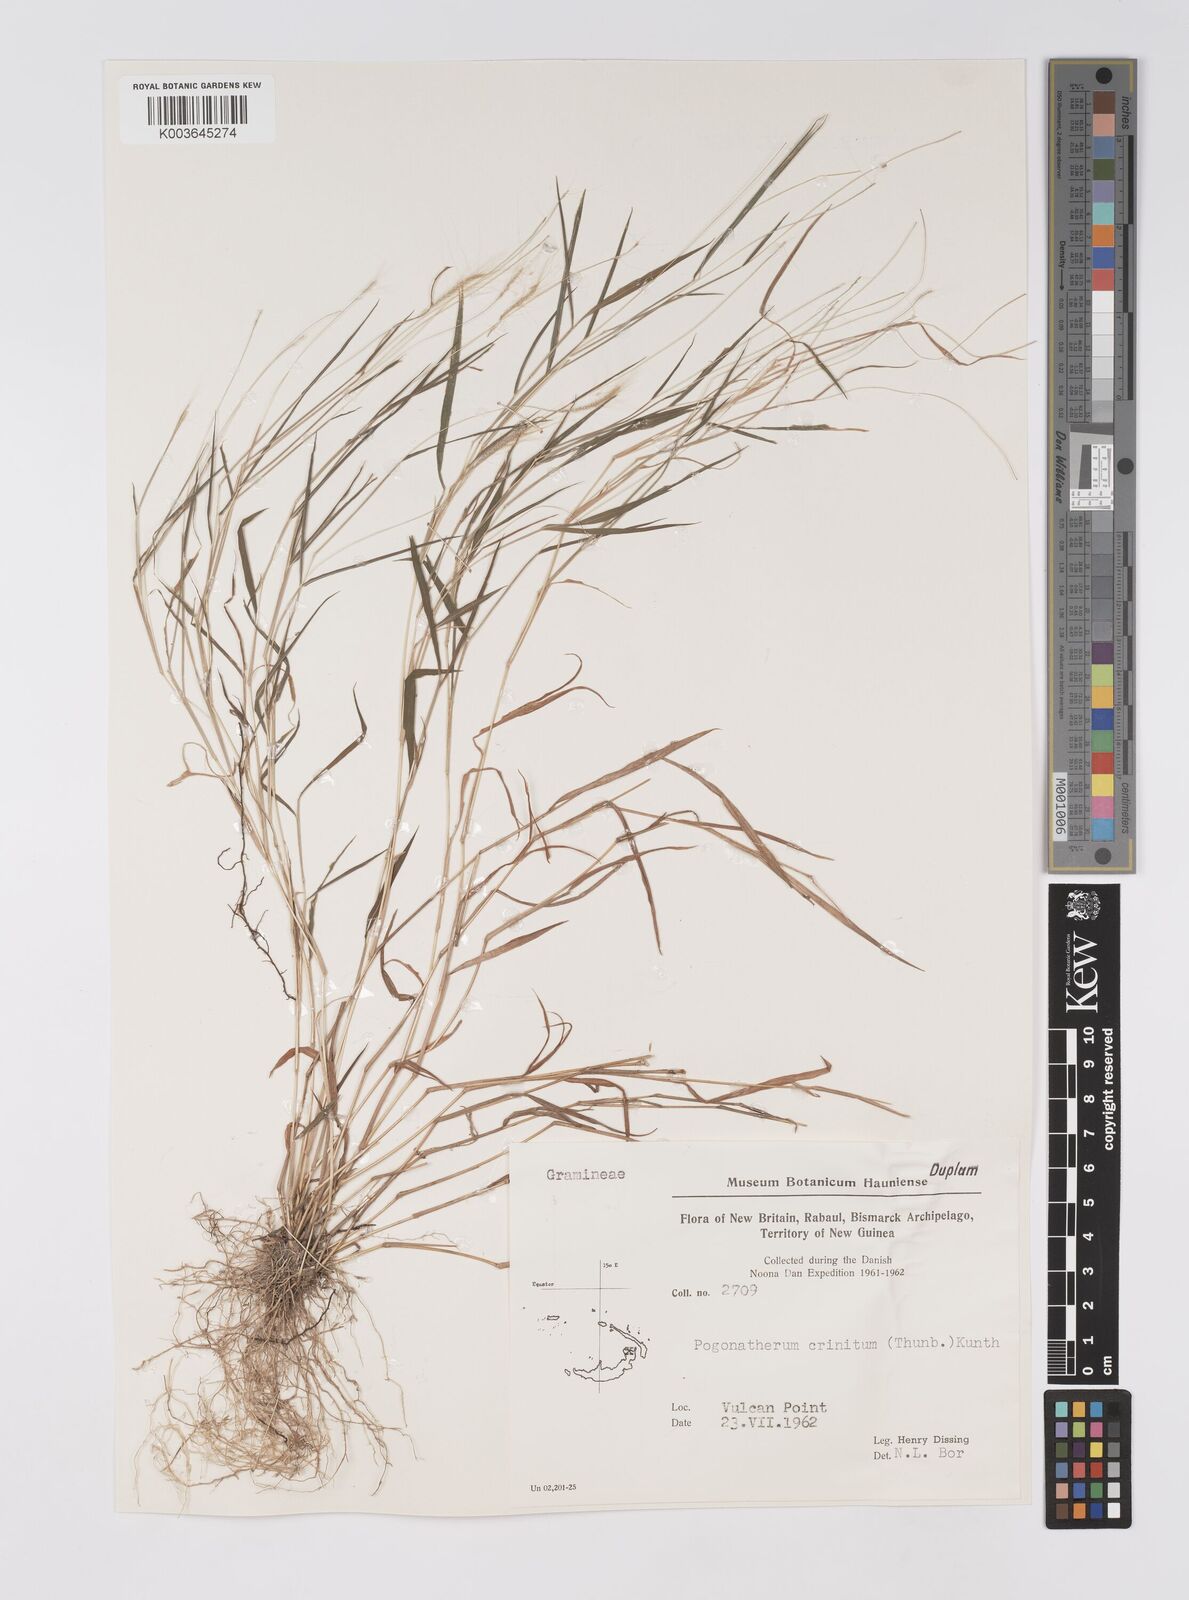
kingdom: Plantae
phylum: Tracheophyta
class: Liliopsida
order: Poales
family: Poaceae
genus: Pogonatherum
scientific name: Pogonatherum crinitum
